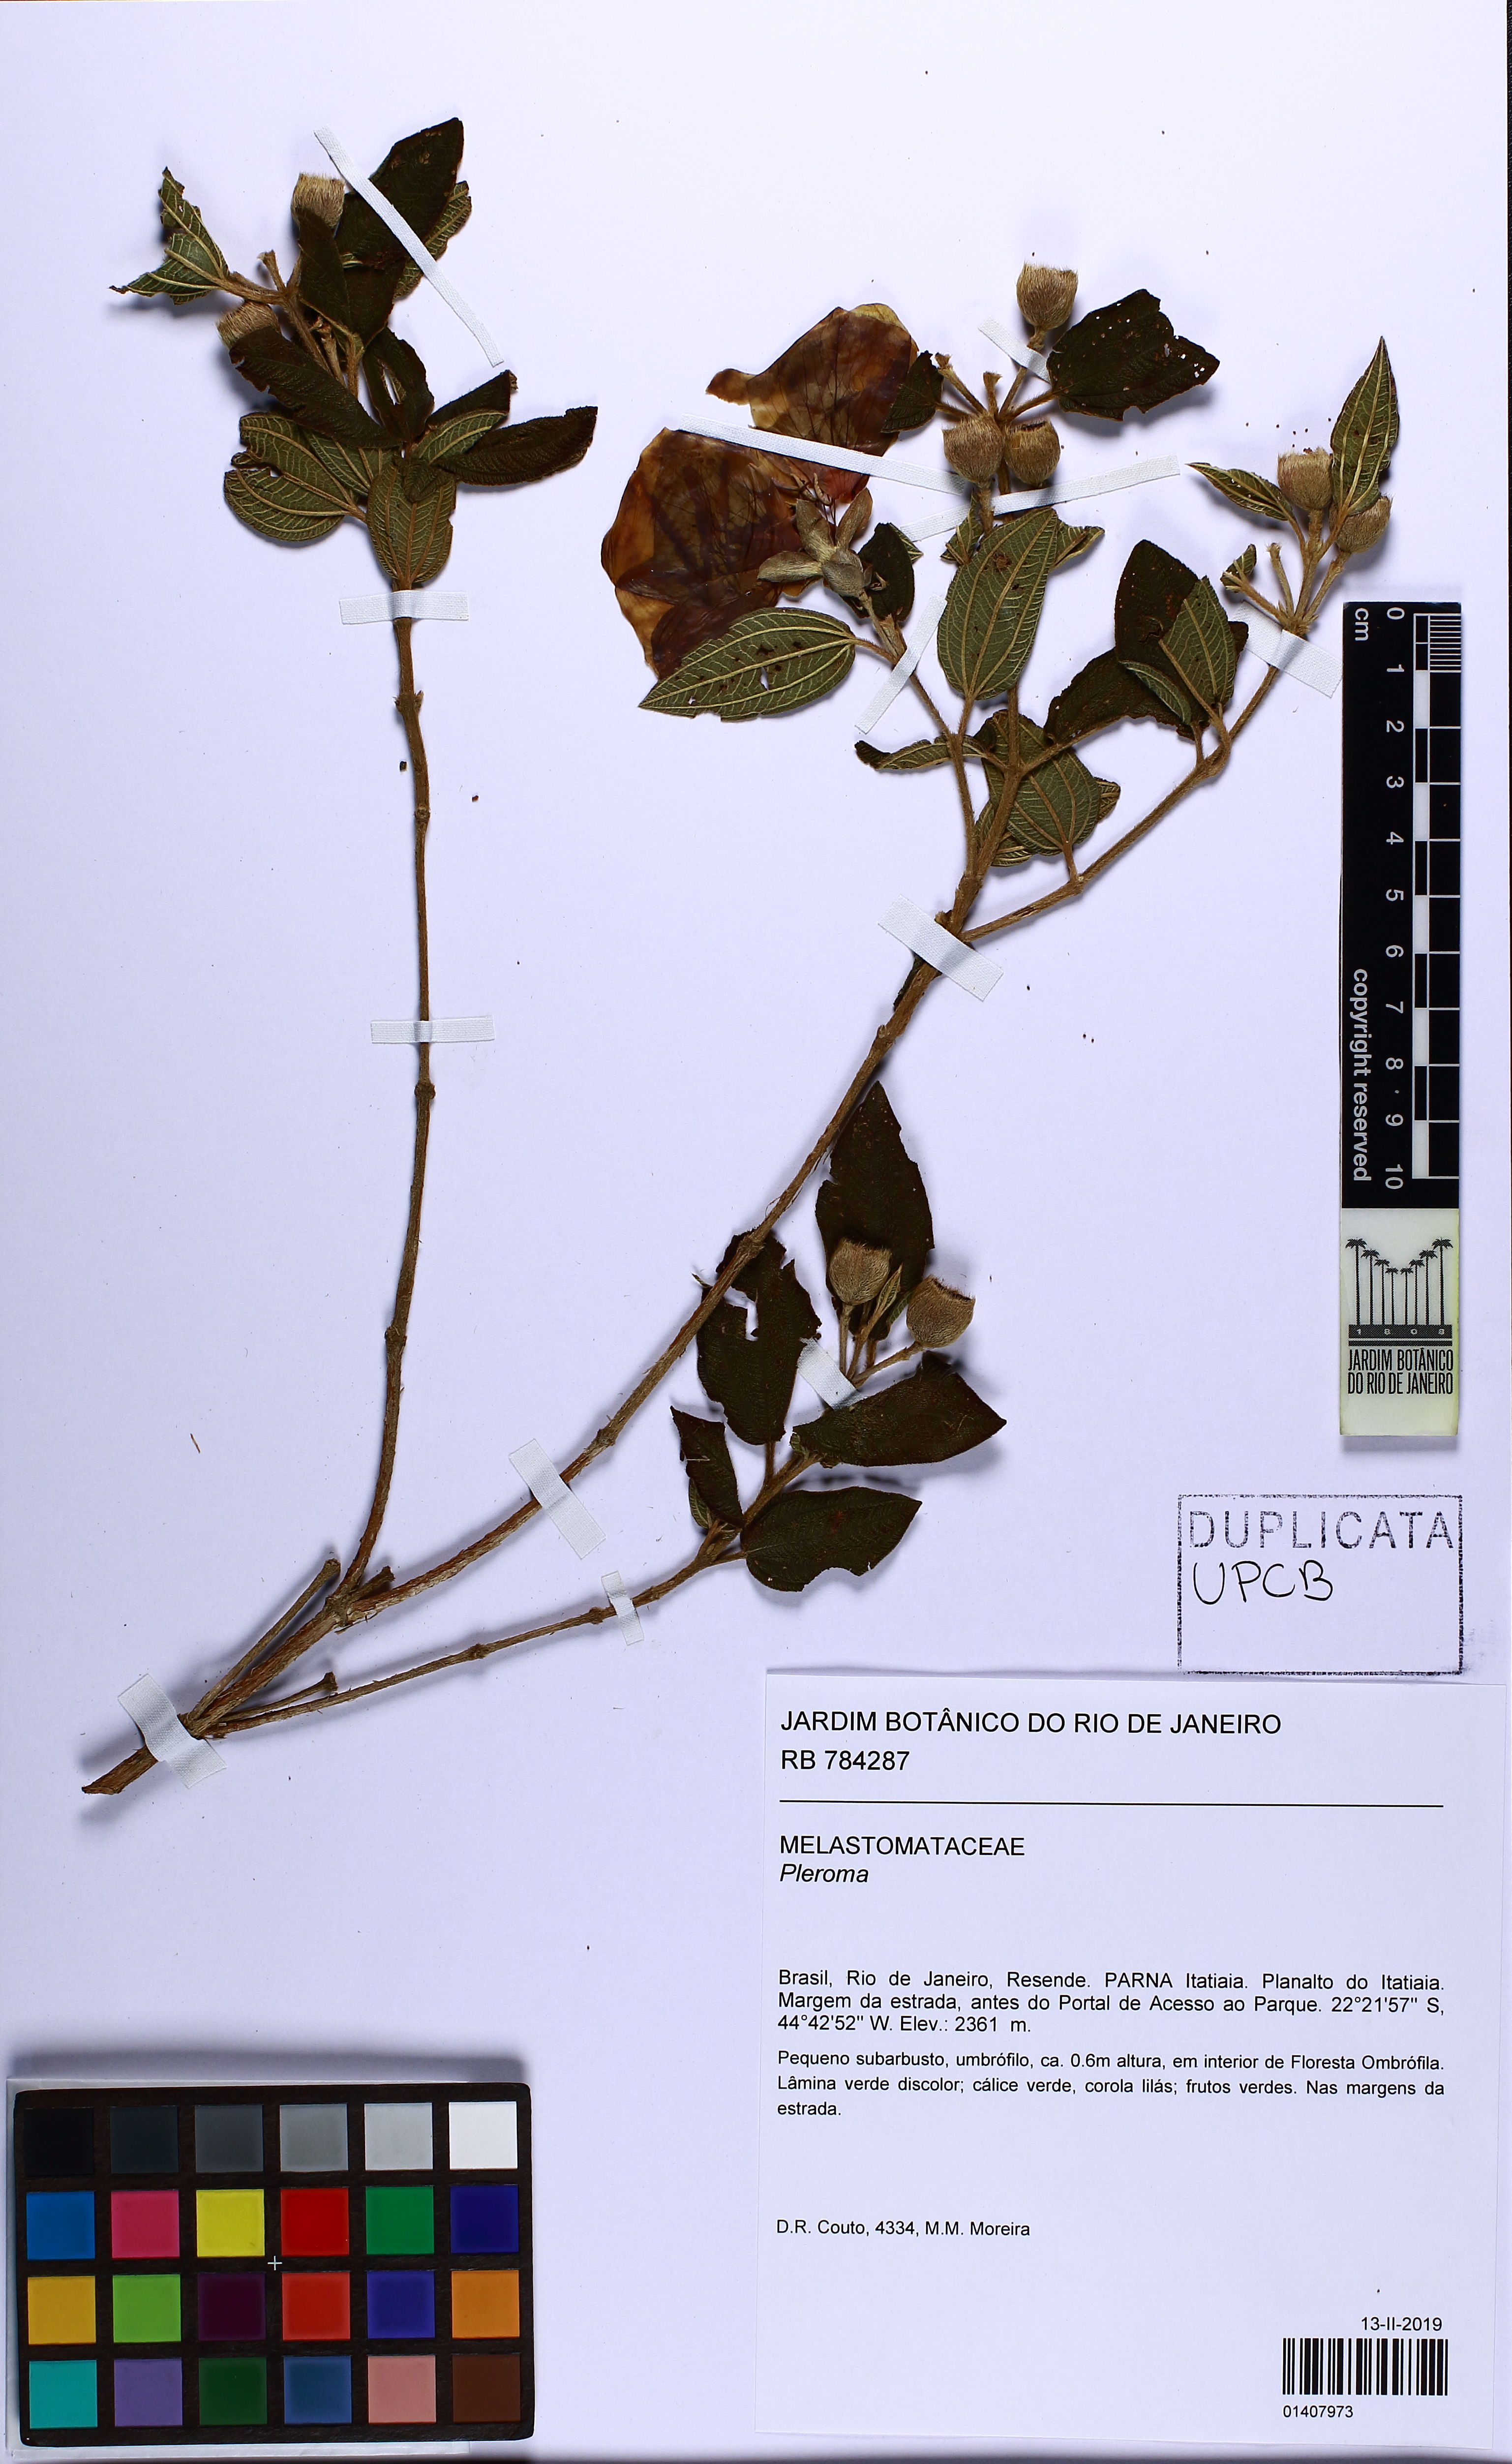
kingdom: Plantae
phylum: Tracheophyta
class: Magnoliopsida
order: Myrtales
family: Melastomataceae
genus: Pleroma
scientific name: Pleroma foveolatum
